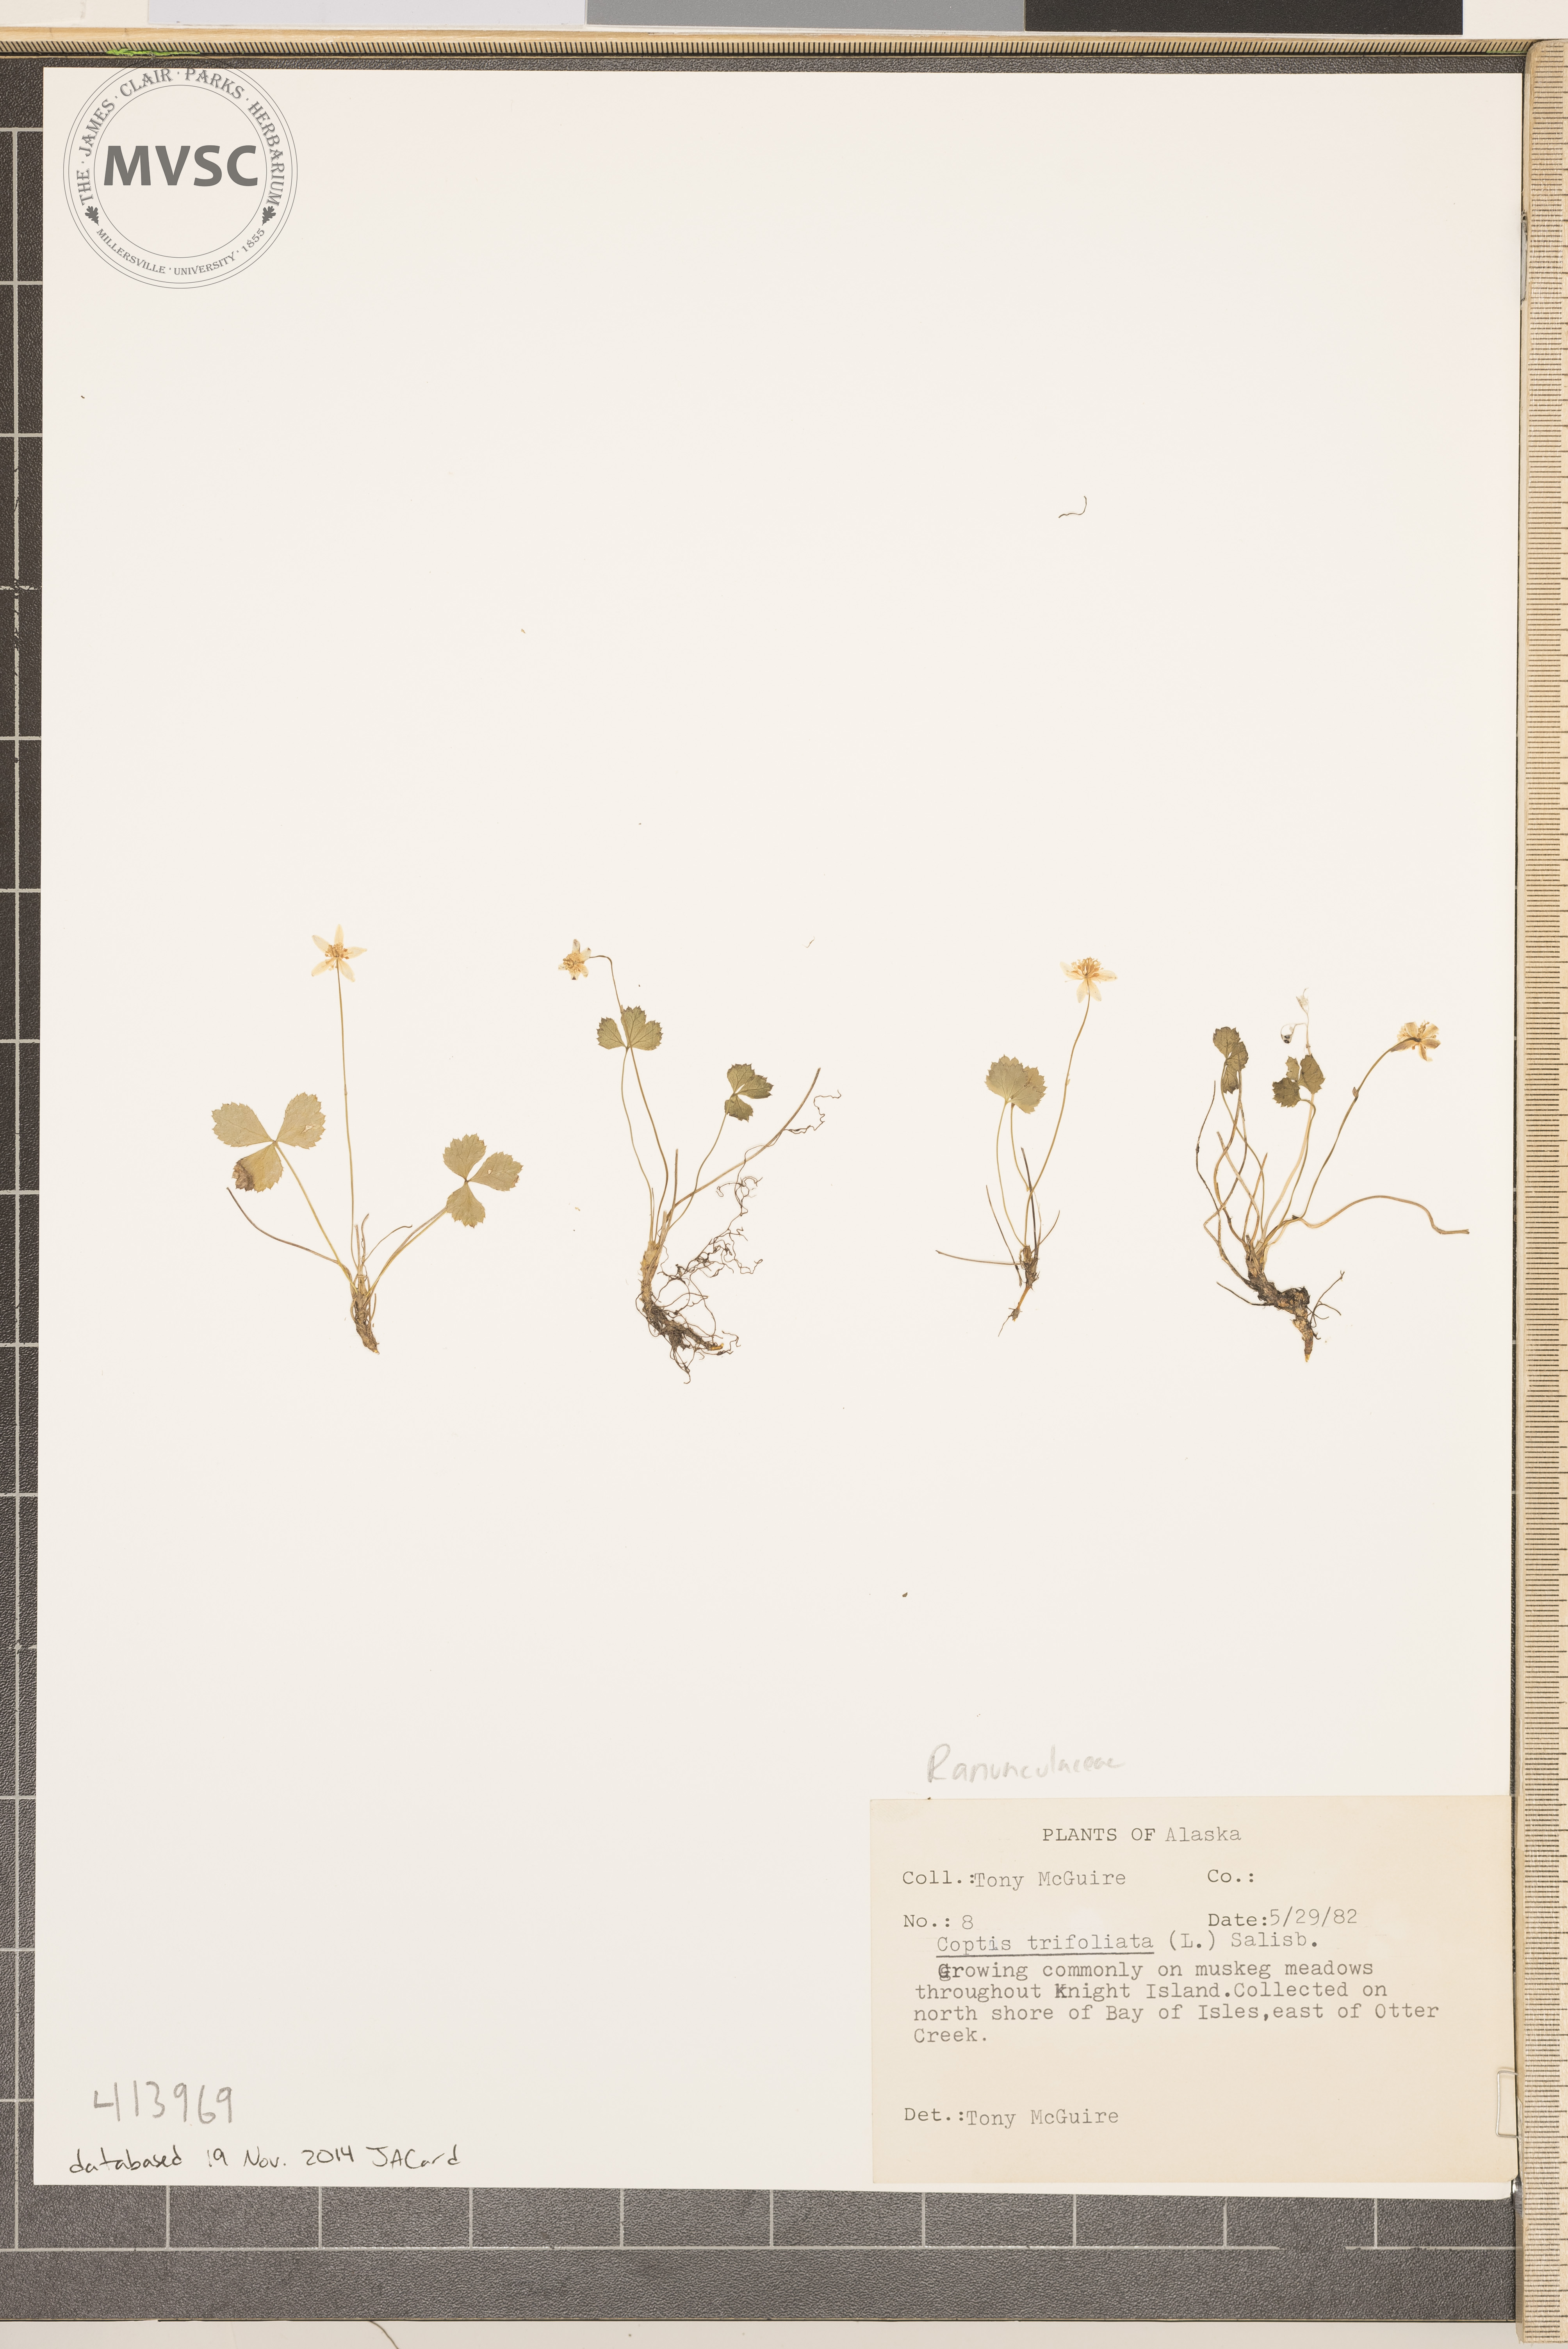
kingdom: Plantae
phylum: Tracheophyta
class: Magnoliopsida
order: Ranunculales
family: Ranunculaceae
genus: Coptis
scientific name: Coptis trifoliolata
